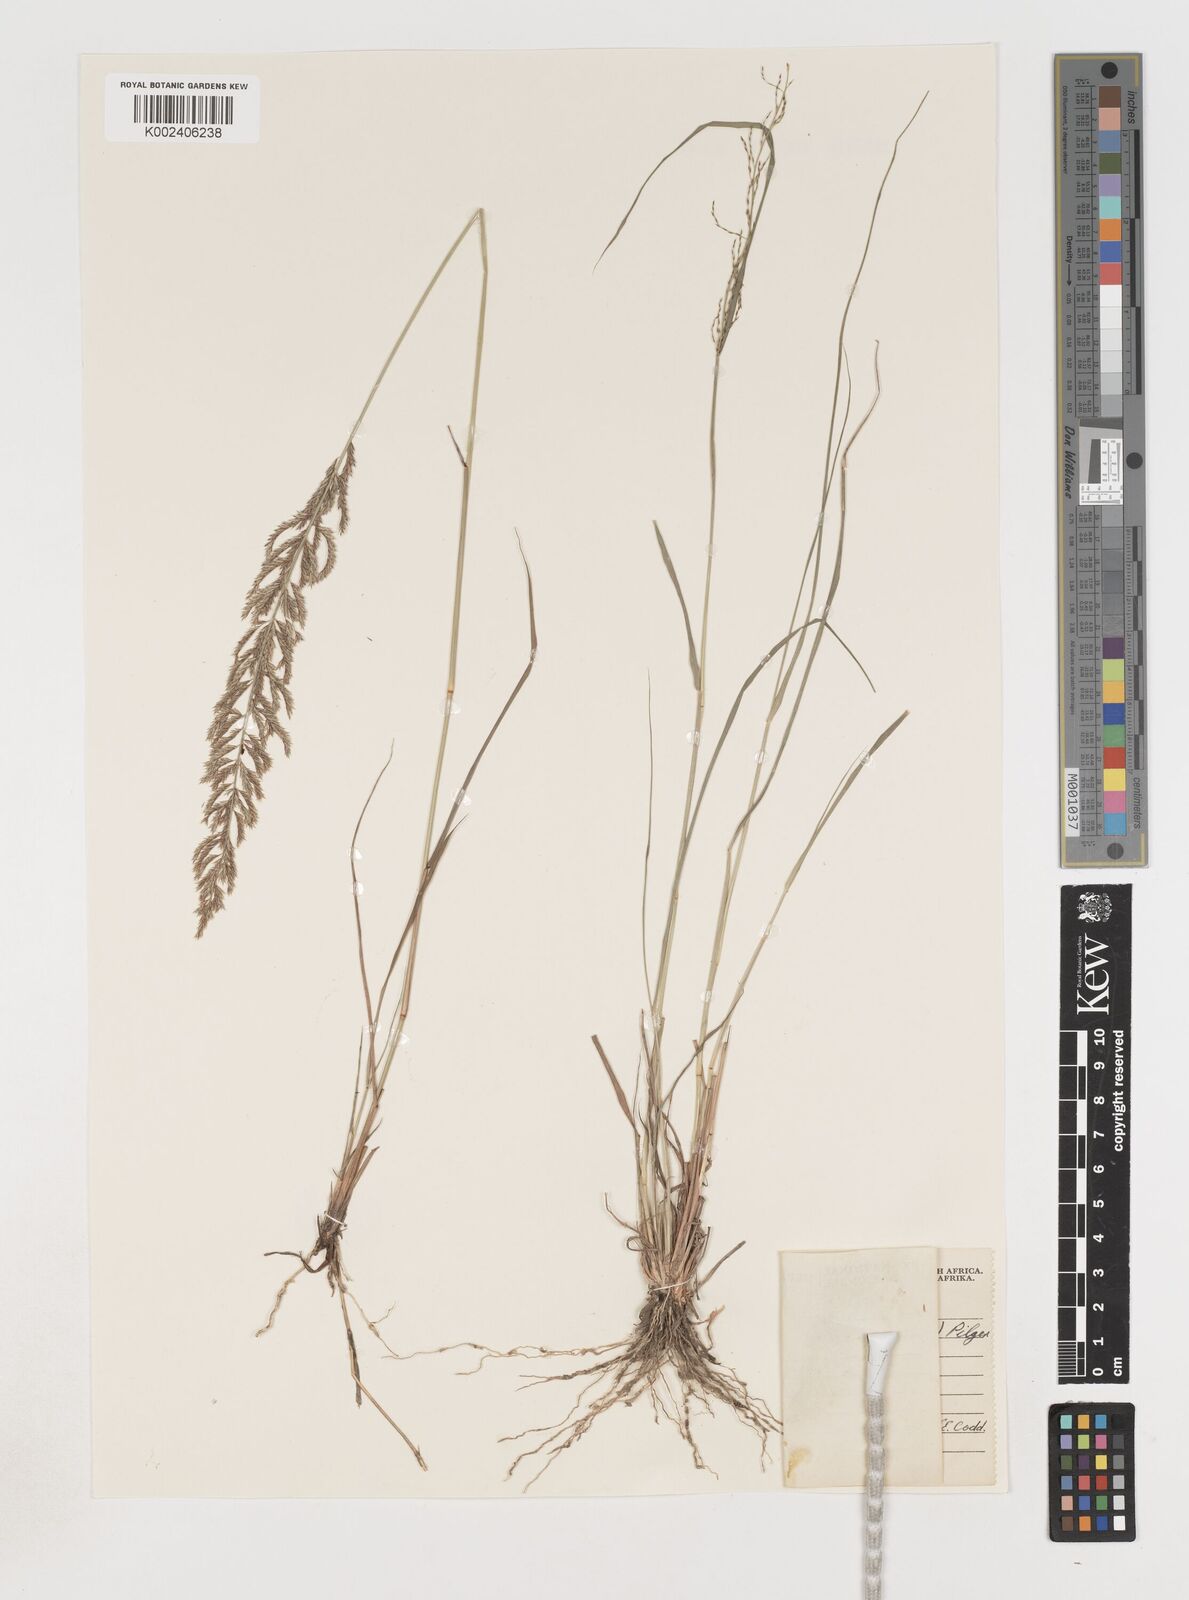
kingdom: Plantae
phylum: Tracheophyta
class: Liliopsida
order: Poales
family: Poaceae
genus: Pogonarthria
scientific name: Pogonarthria squarrosa
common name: Grass
